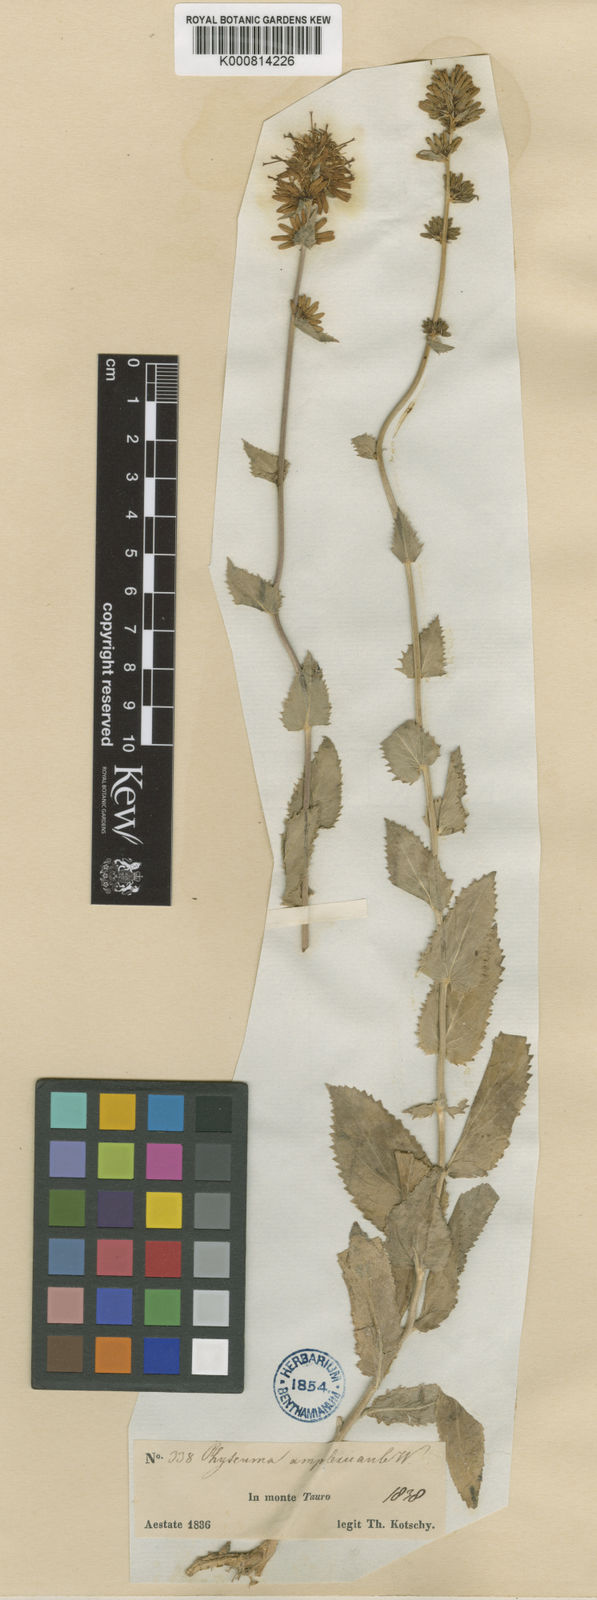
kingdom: Plantae
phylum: Tracheophyta
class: Magnoliopsida
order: Asterales
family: Campanulaceae
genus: Asyneuma
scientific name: Asyneuma amplexicaule
